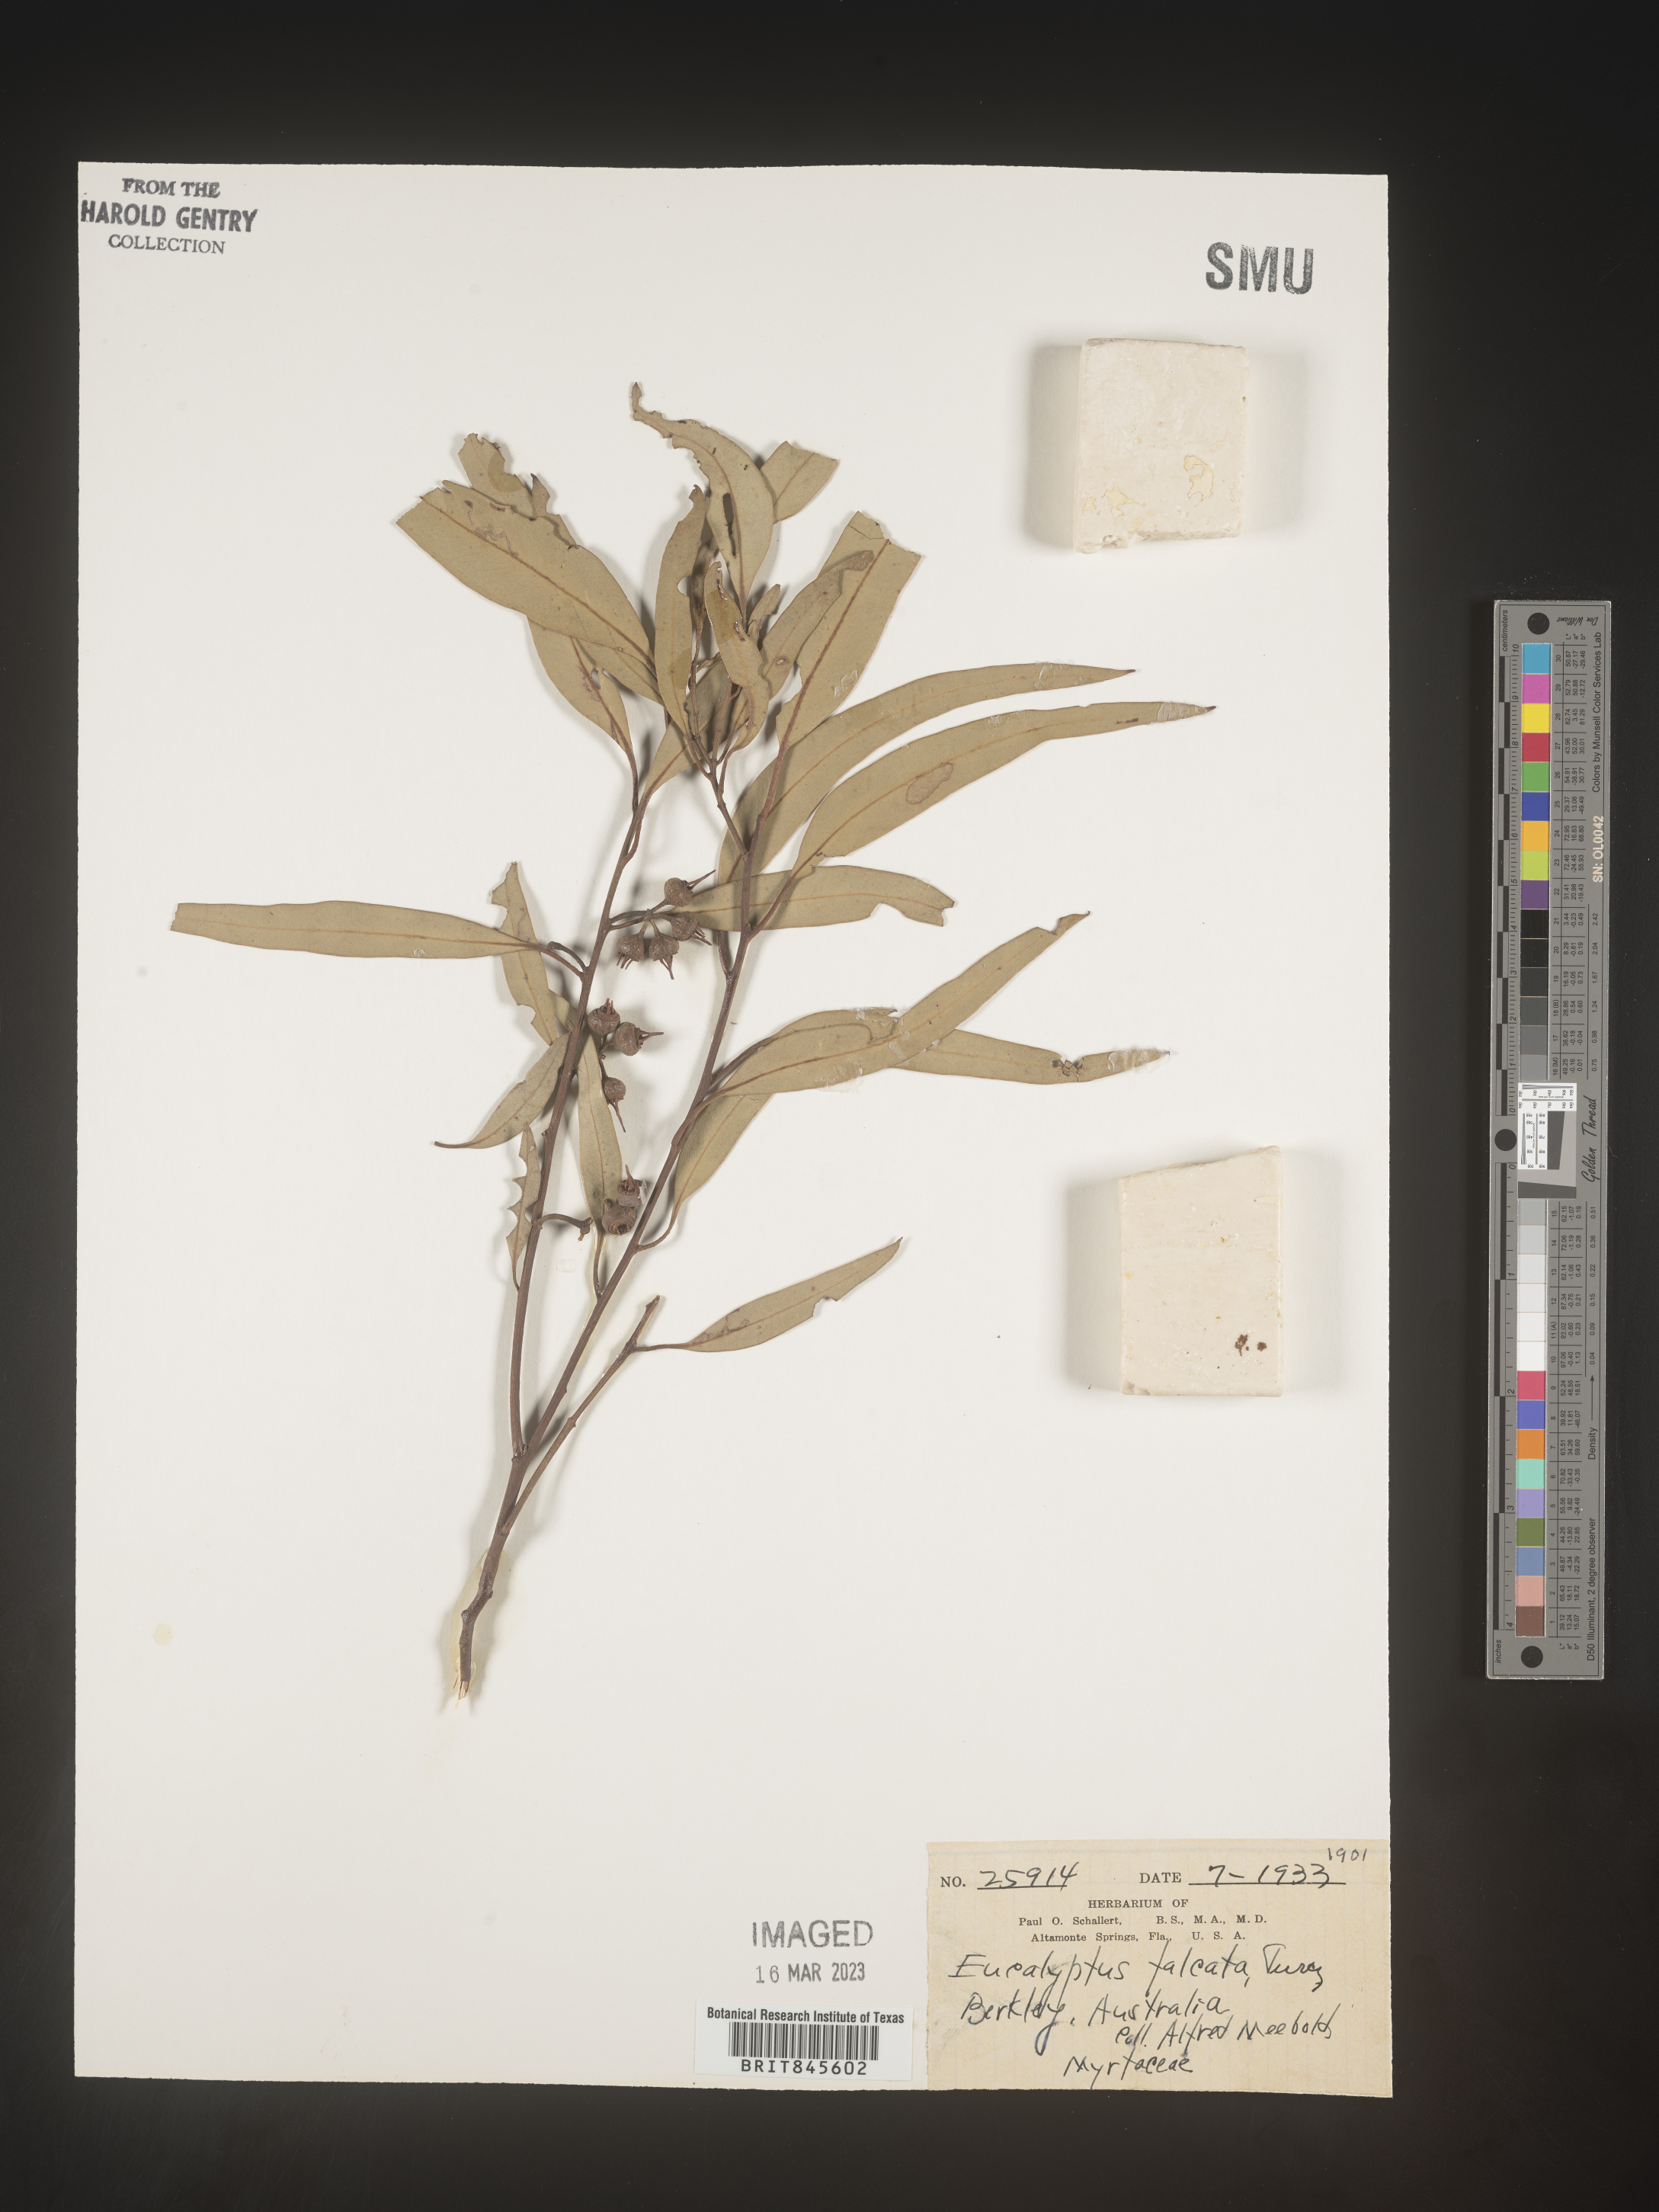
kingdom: Plantae
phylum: Tracheophyta
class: Magnoliopsida
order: Myrtales
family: Myrtaceae
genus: Eucalyptus
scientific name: Eucalyptus
